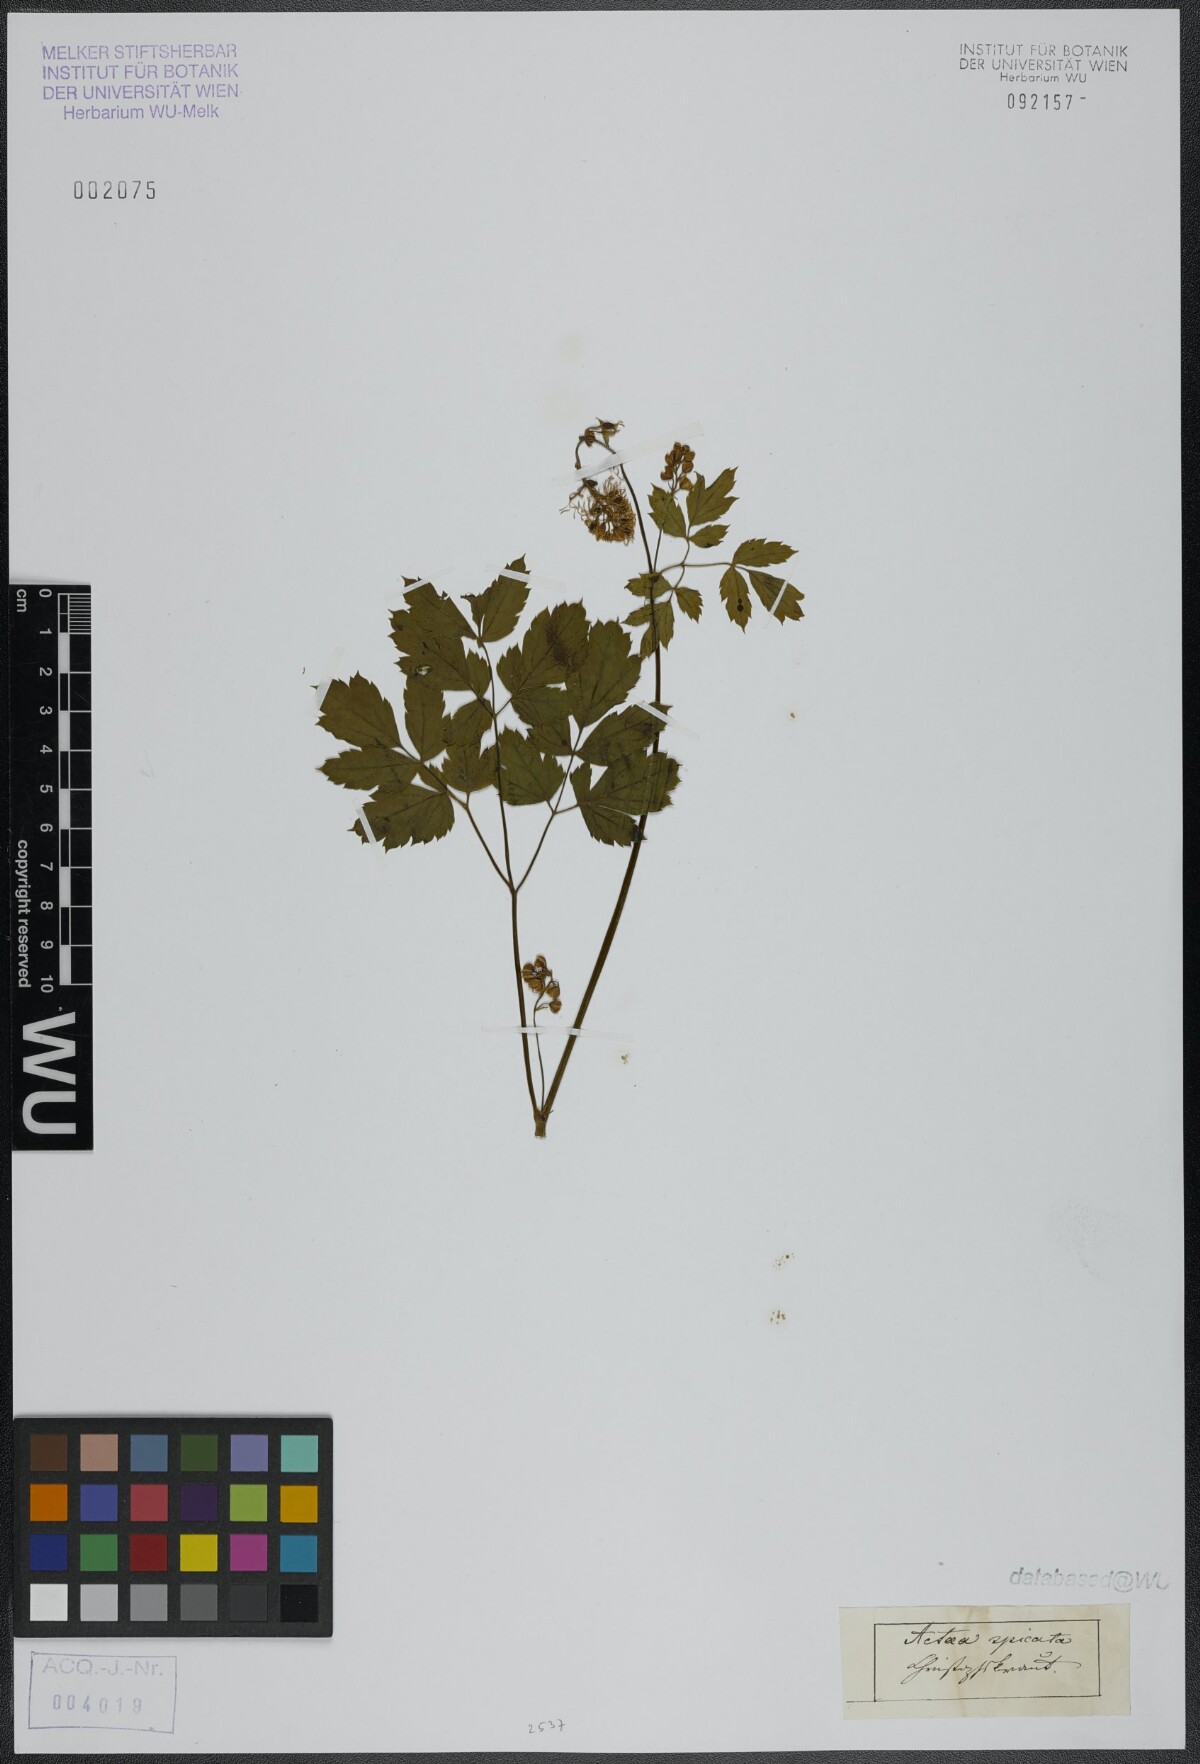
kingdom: Plantae
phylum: Tracheophyta
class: Magnoliopsida
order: Ranunculales
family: Ranunculaceae
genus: Actaea
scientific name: Actaea spicata
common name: Baneberry
